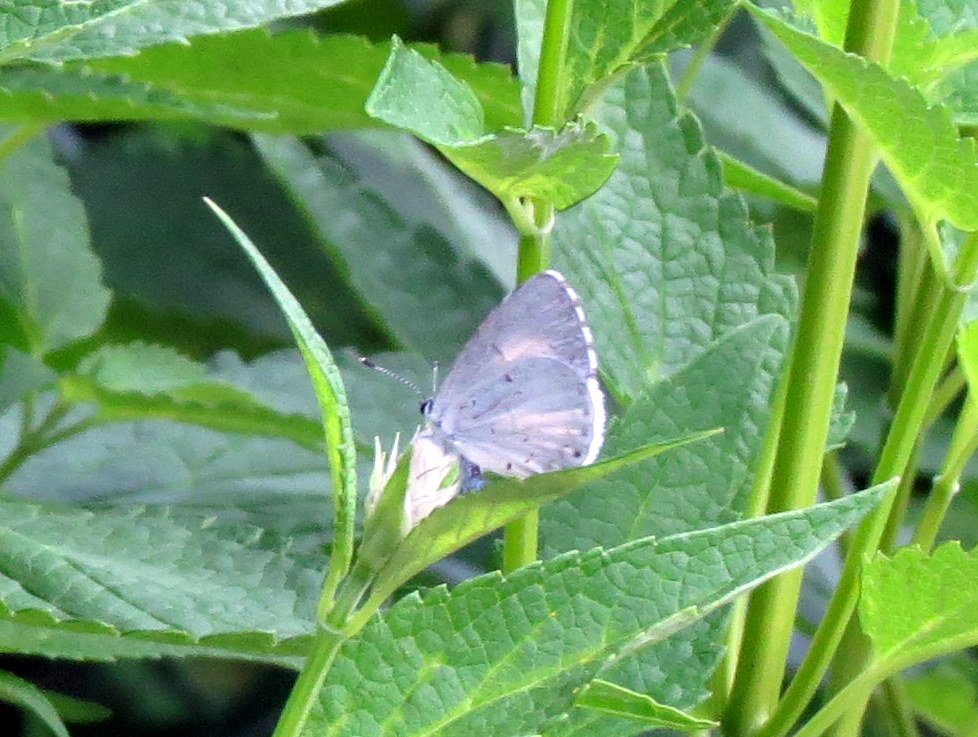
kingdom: Animalia
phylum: Arthropoda
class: Insecta
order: Lepidoptera
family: Lycaenidae
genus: Cyaniris
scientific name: Cyaniris neglecta
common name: Summer Azure
